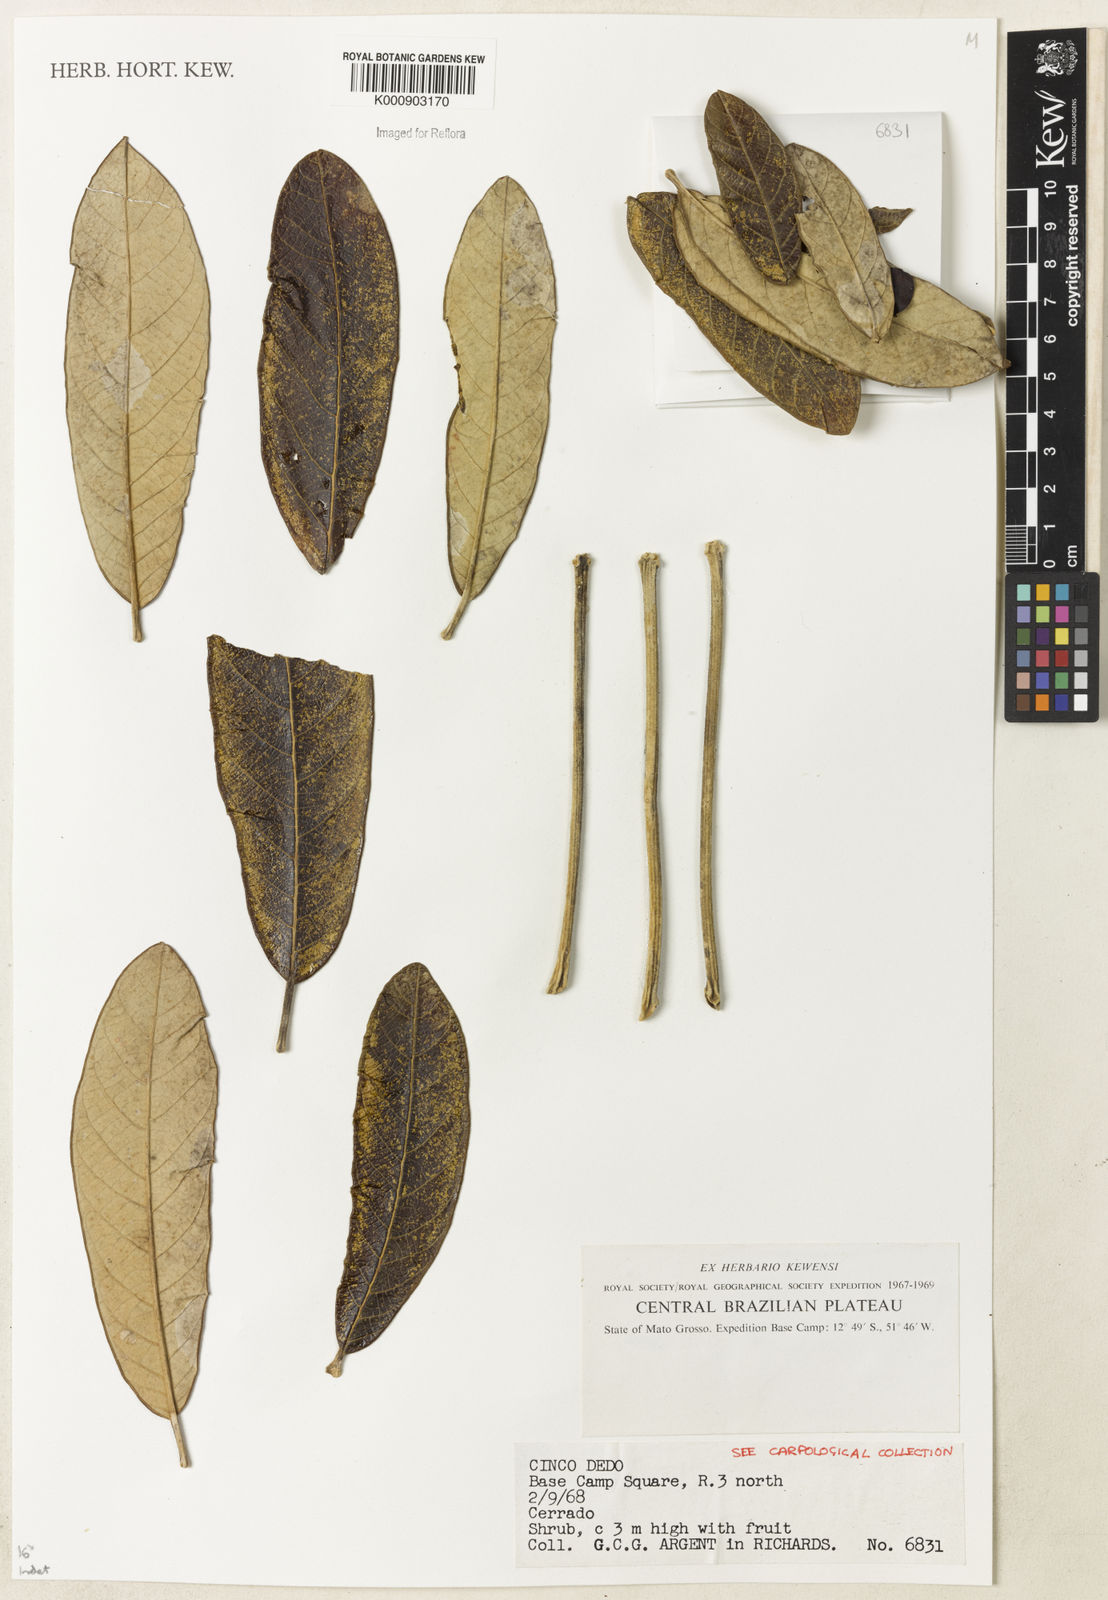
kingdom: Plantae
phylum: Tracheophyta
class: Magnoliopsida
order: Lamiales
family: Bignoniaceae
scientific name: Bignoniaceae
